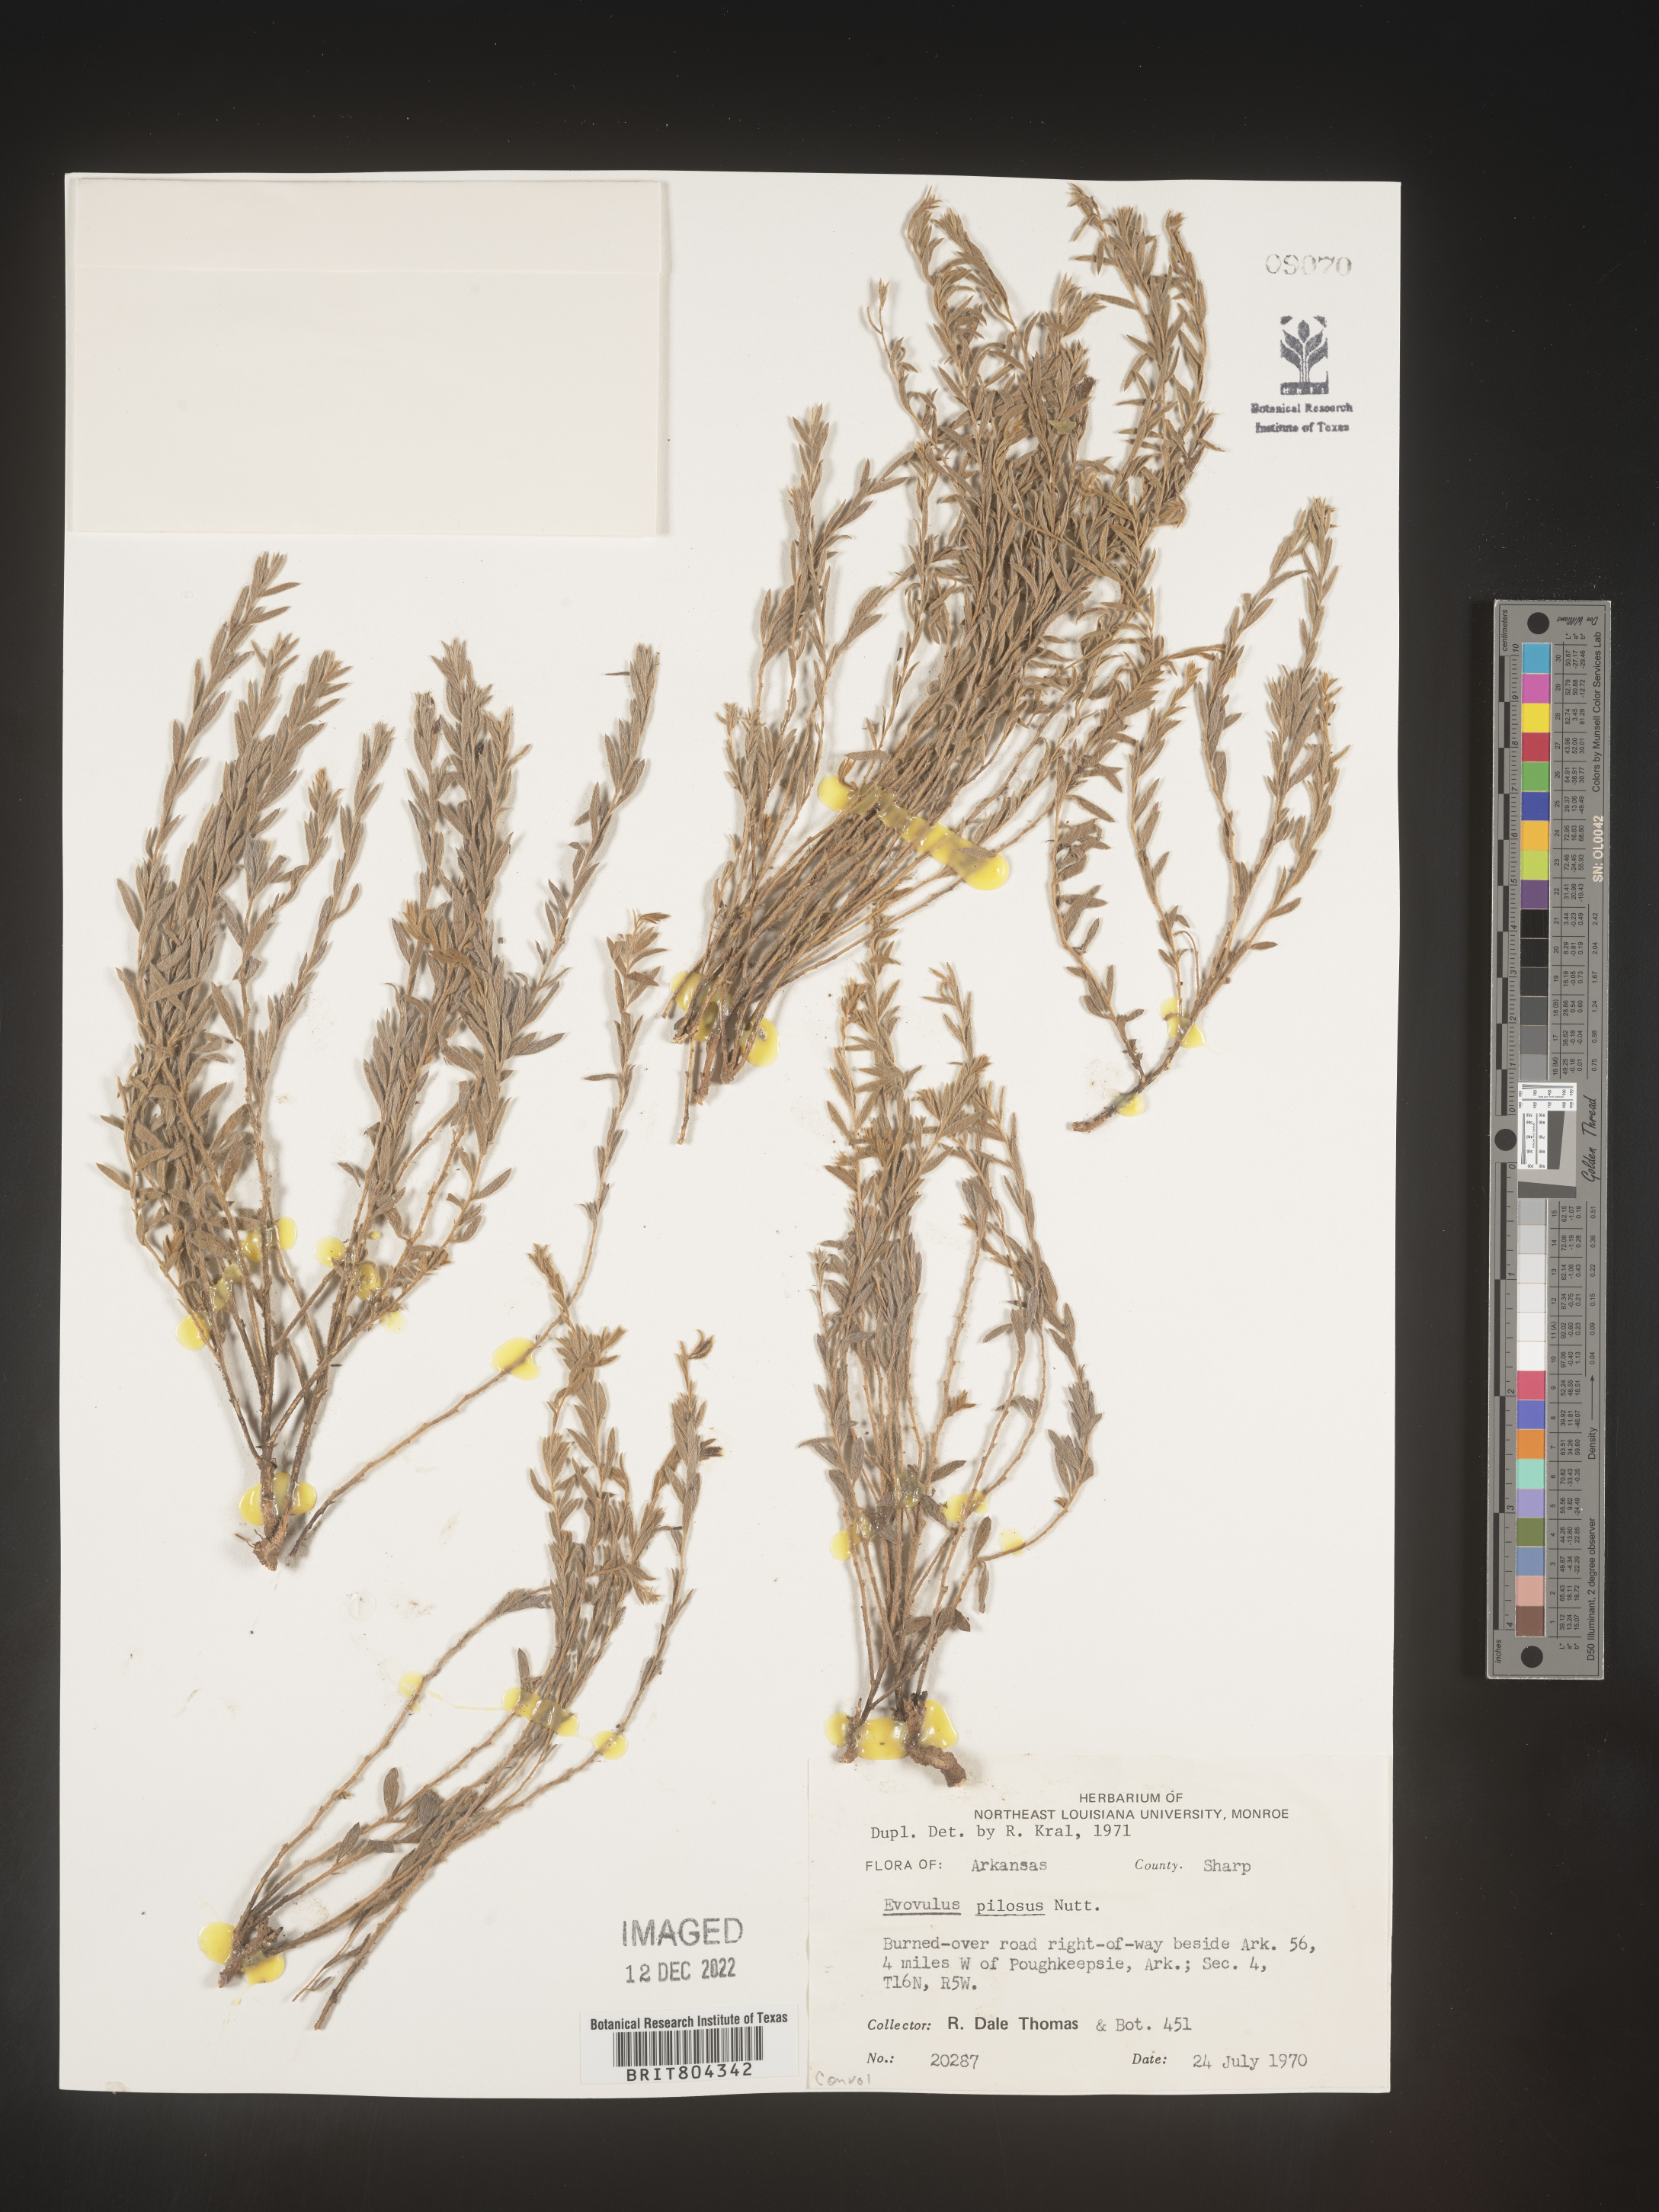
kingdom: Plantae
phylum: Tracheophyta
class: Magnoliopsida
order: Solanales
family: Convolvulaceae
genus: Evolvulus
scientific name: Evolvulus nuttallianus
